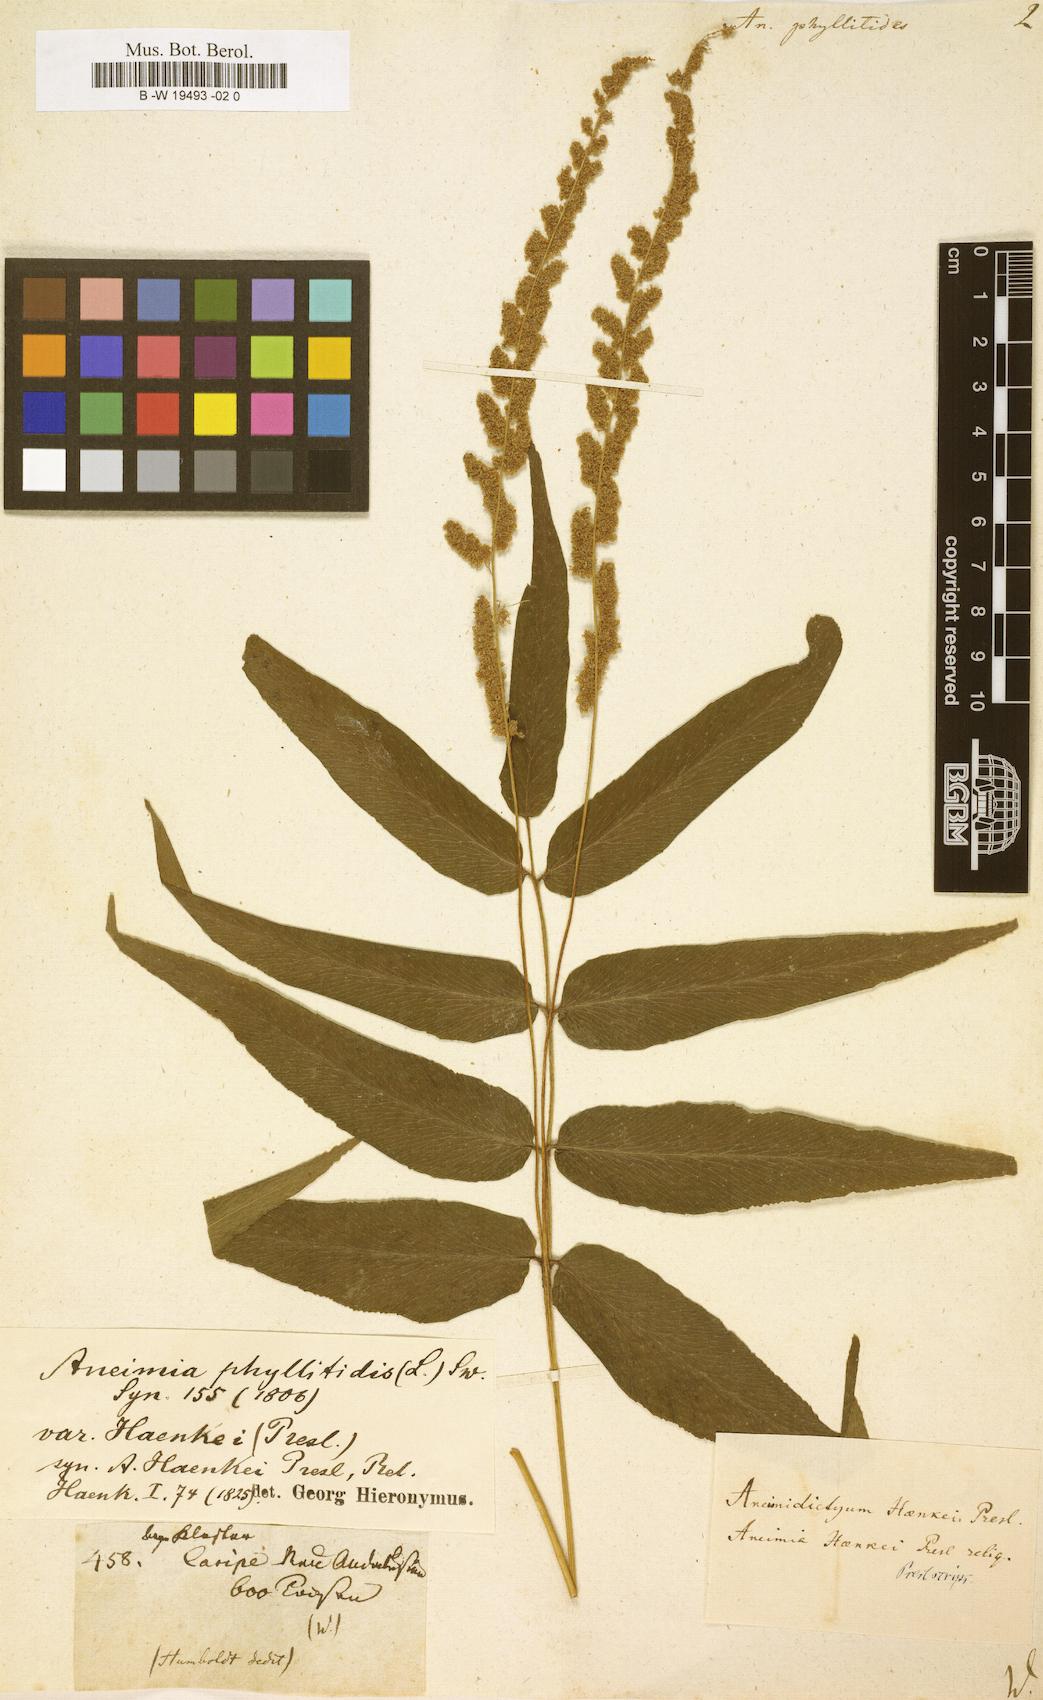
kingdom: Plantae
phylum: Tracheophyta
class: Polypodiopsida
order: Schizaeales
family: Anemiaceae
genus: Anemia
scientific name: Anemia phyllitidis
